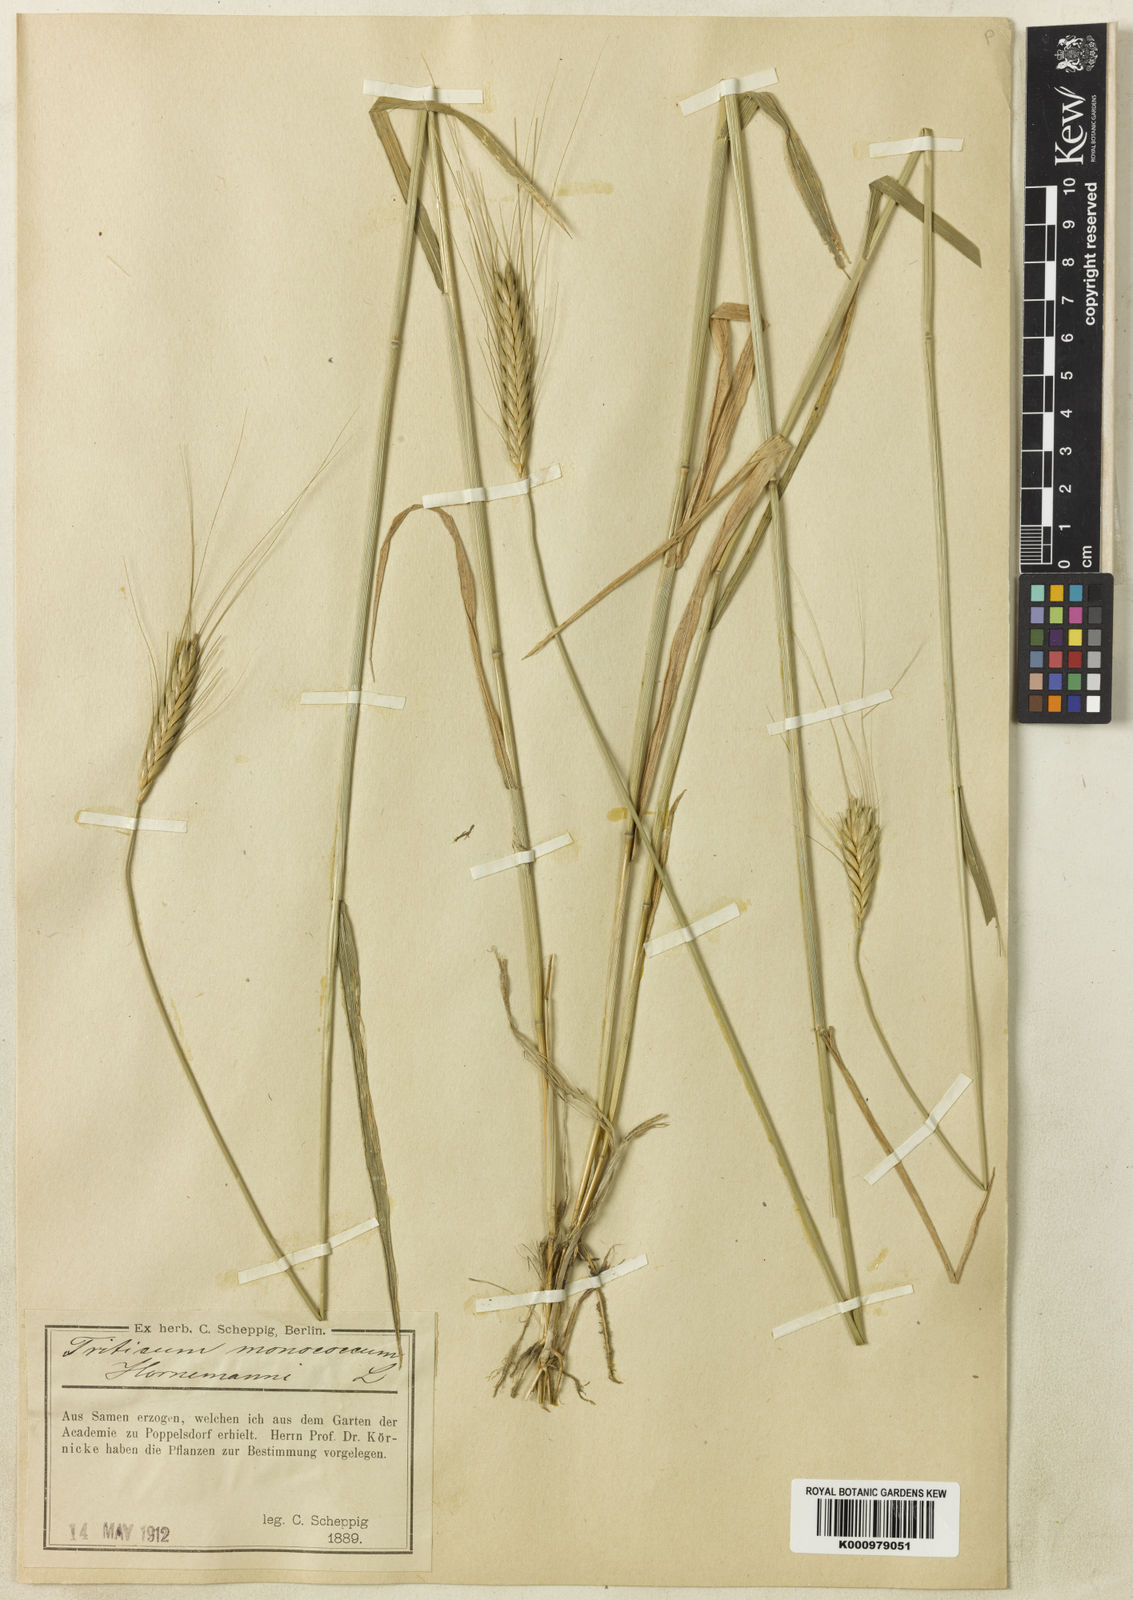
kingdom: Plantae
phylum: Tracheophyta
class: Liliopsida
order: Poales
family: Poaceae
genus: Triticum
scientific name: Triticum monococcum
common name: Einkorn
